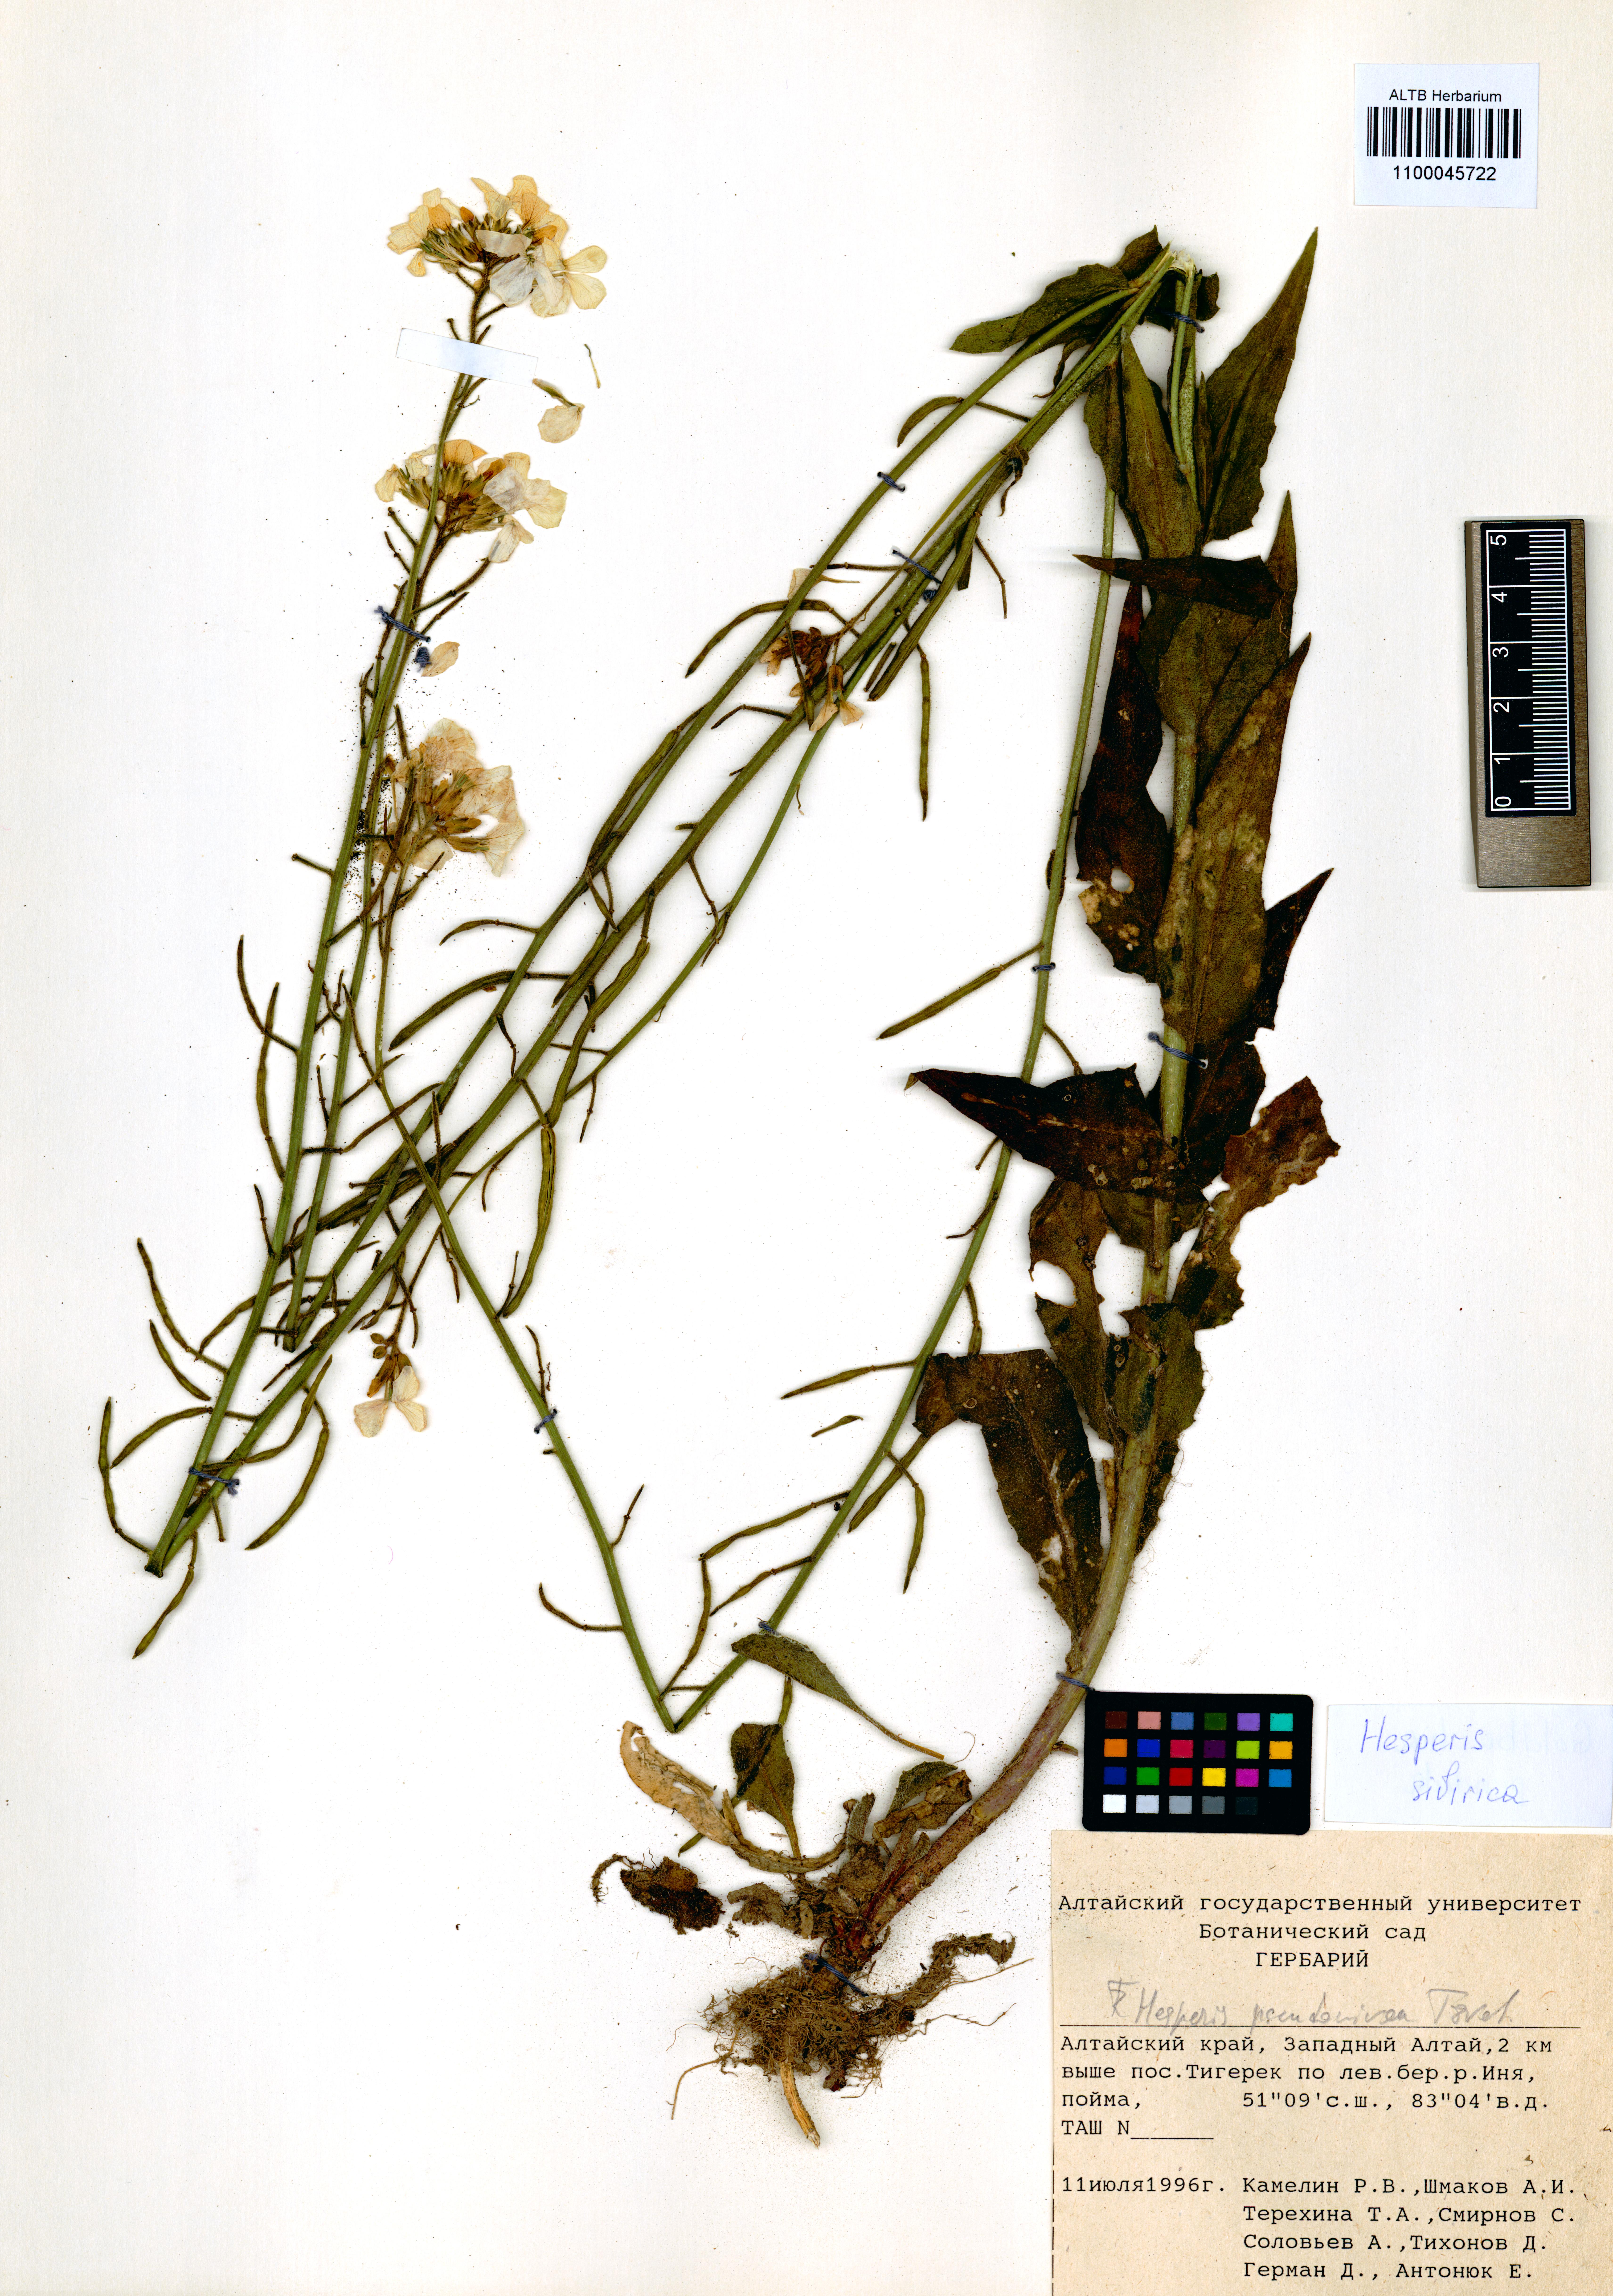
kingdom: Plantae
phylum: Tracheophyta
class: Magnoliopsida
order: Brassicales
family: Brassicaceae
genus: Hesperis
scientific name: Hesperis sibirica
